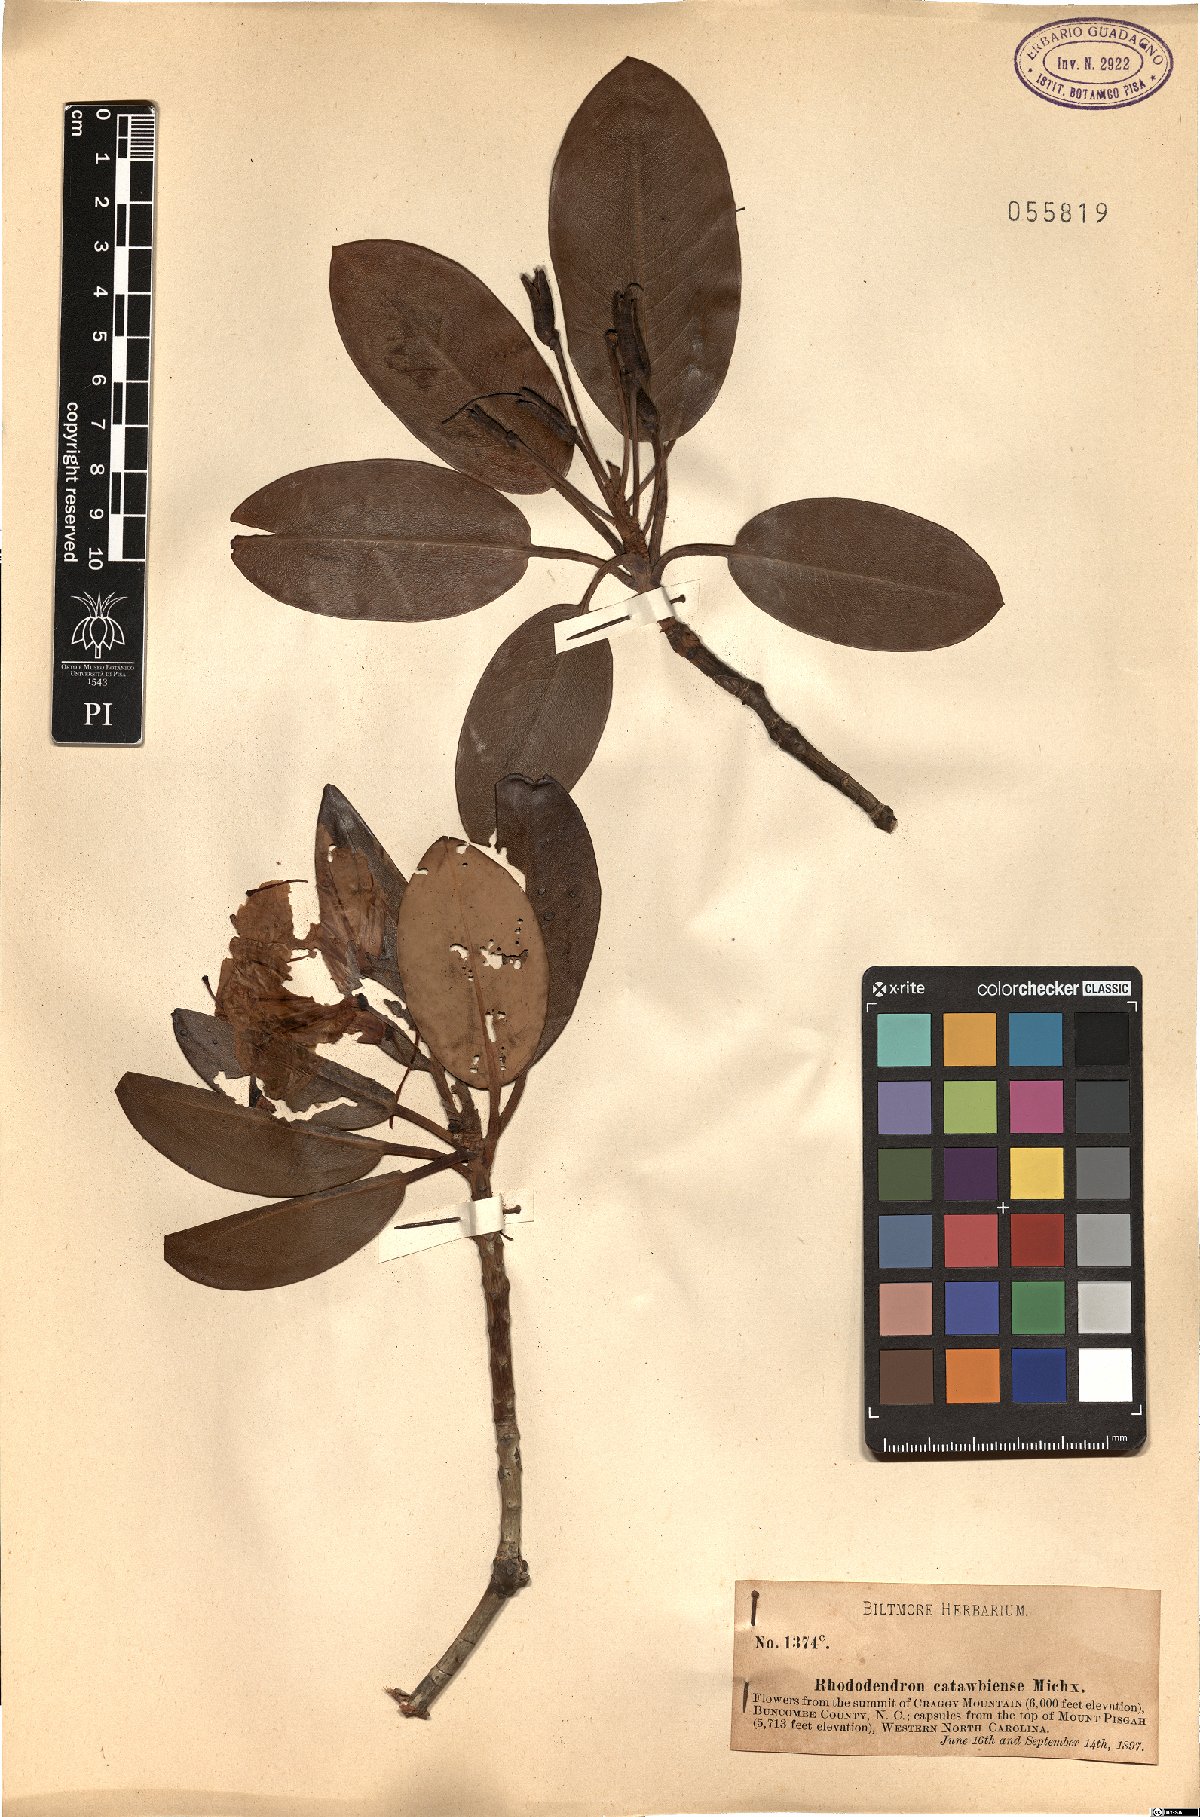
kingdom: Plantae
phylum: Tracheophyta
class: Magnoliopsida
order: Ericales
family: Ericaceae
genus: Rhododendron
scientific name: Rhododendron latoucheae
